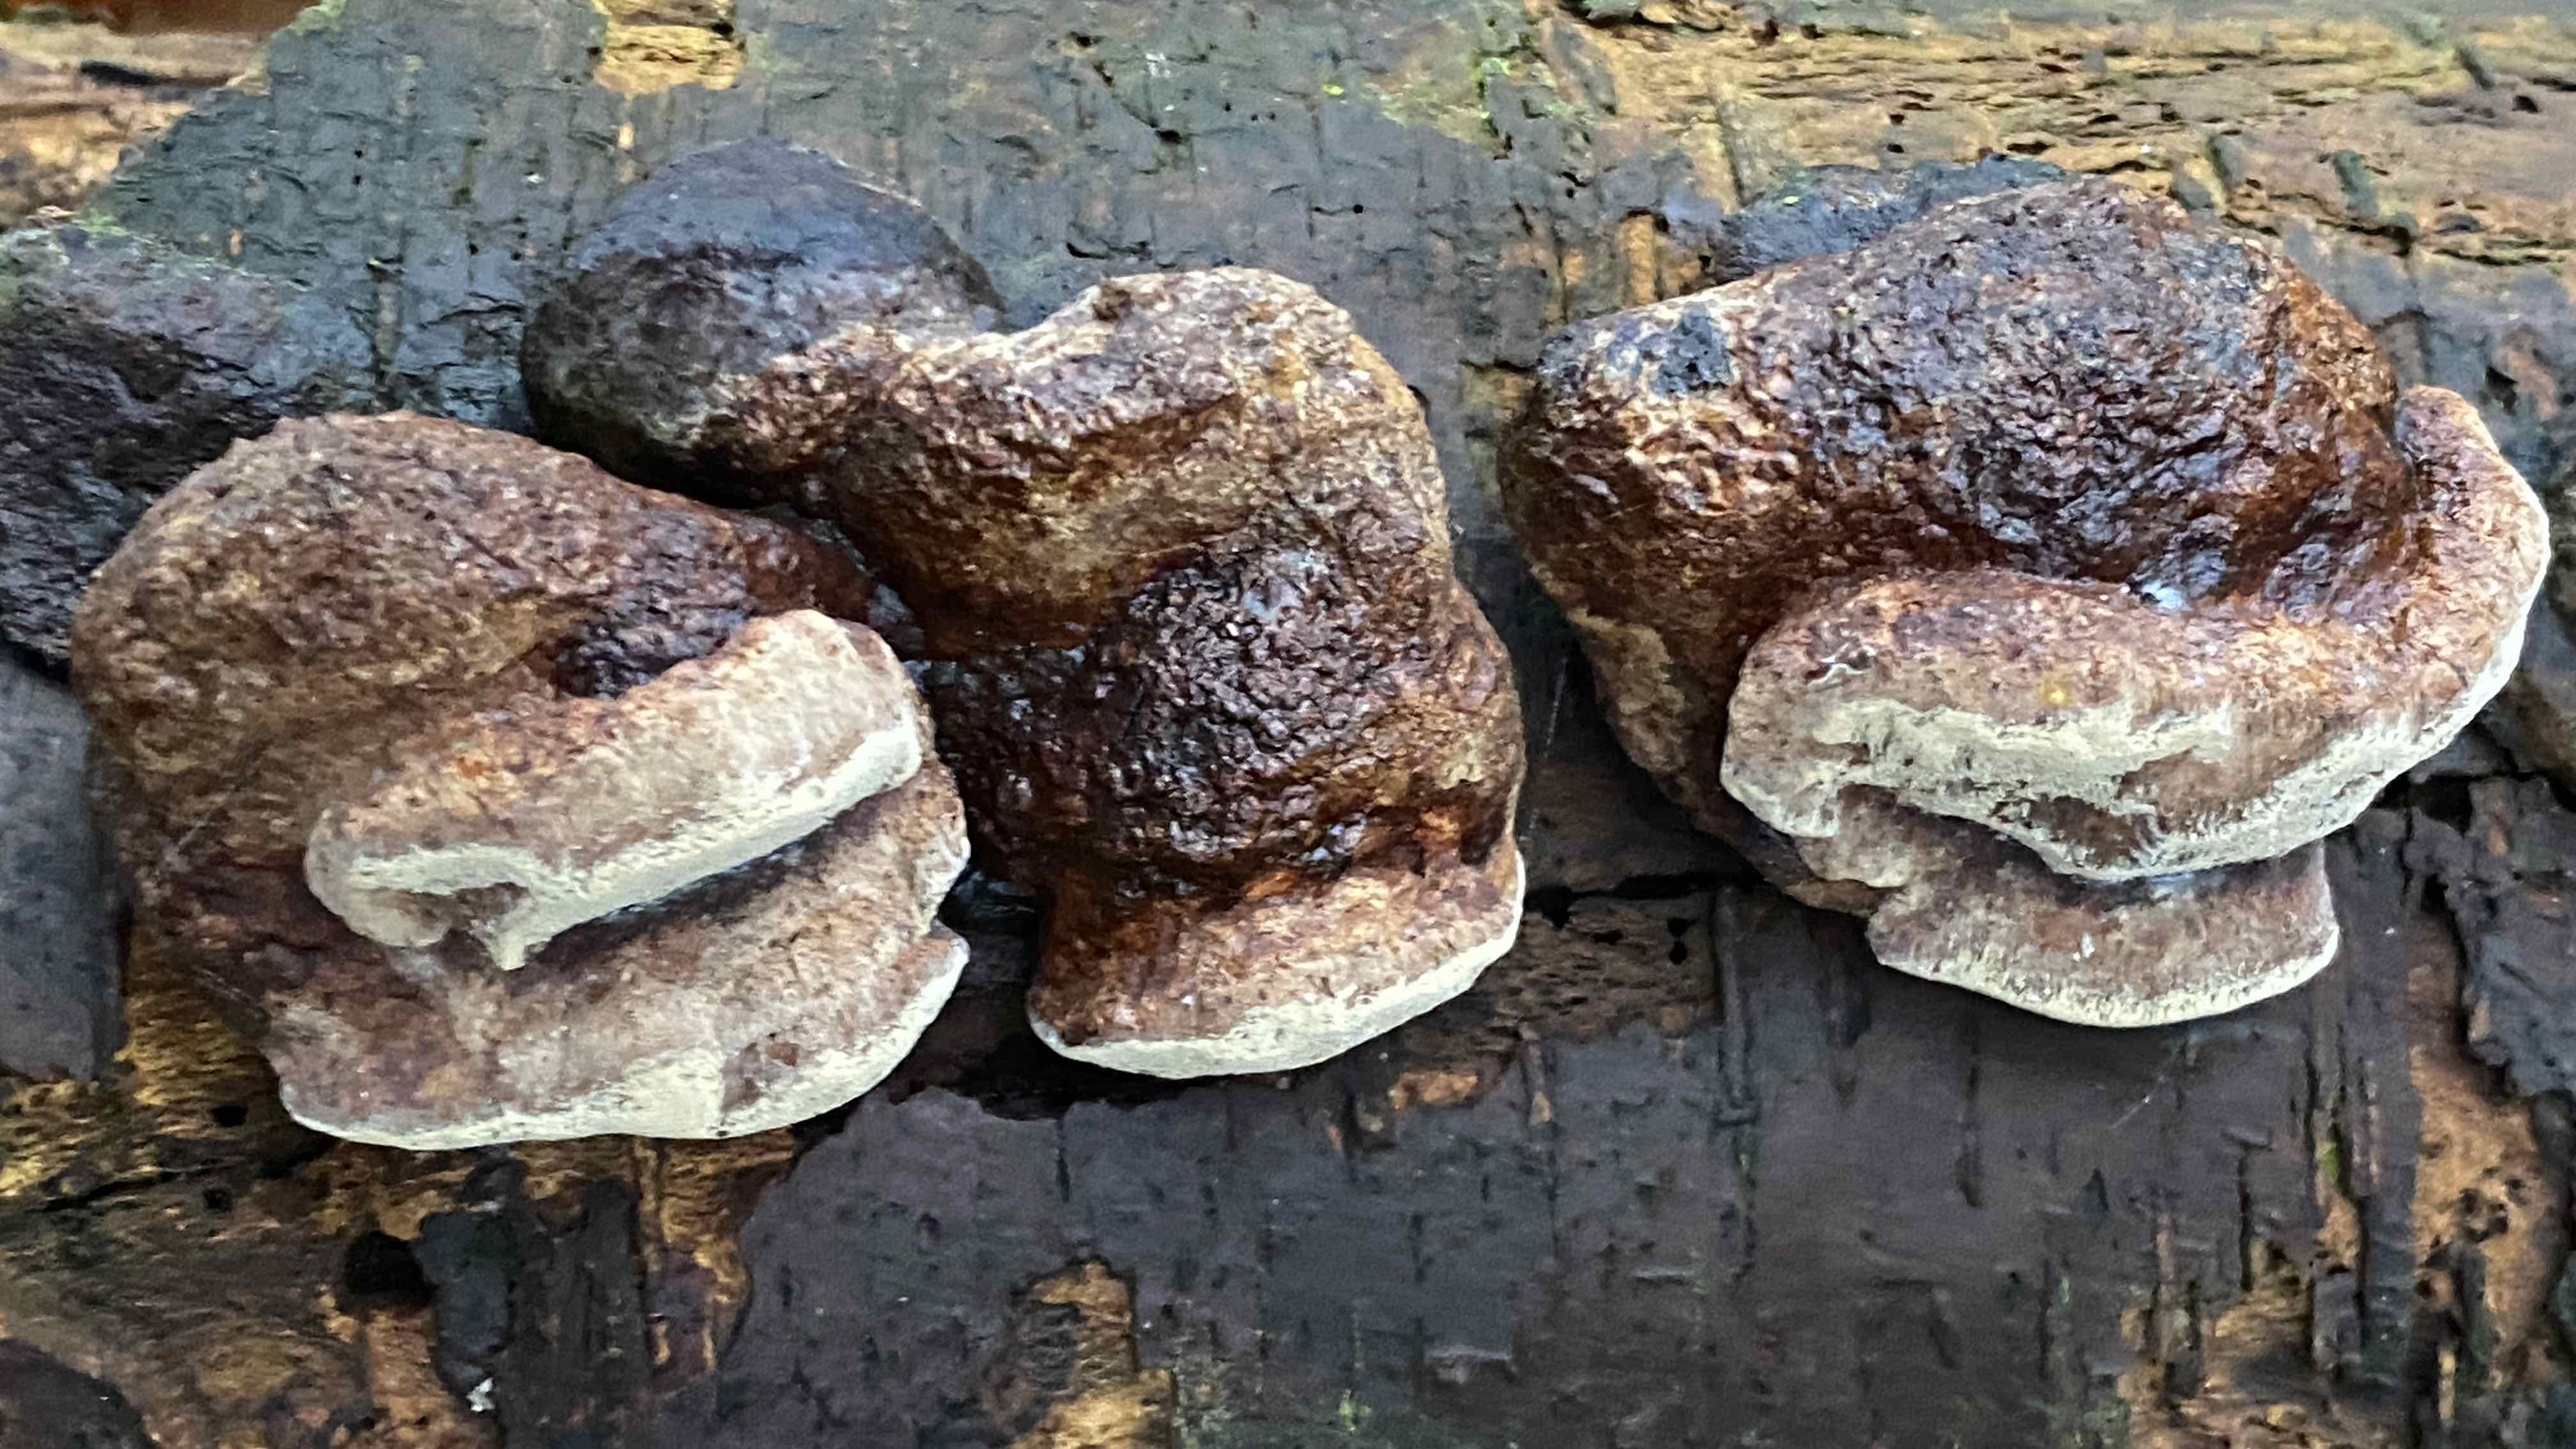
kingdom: Fungi
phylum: Basidiomycota
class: Agaricomycetes
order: Polyporales
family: Fomitopsidaceae
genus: Fomitopsis
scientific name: Fomitopsis pinicola
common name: randbæltet hovporesvamp
